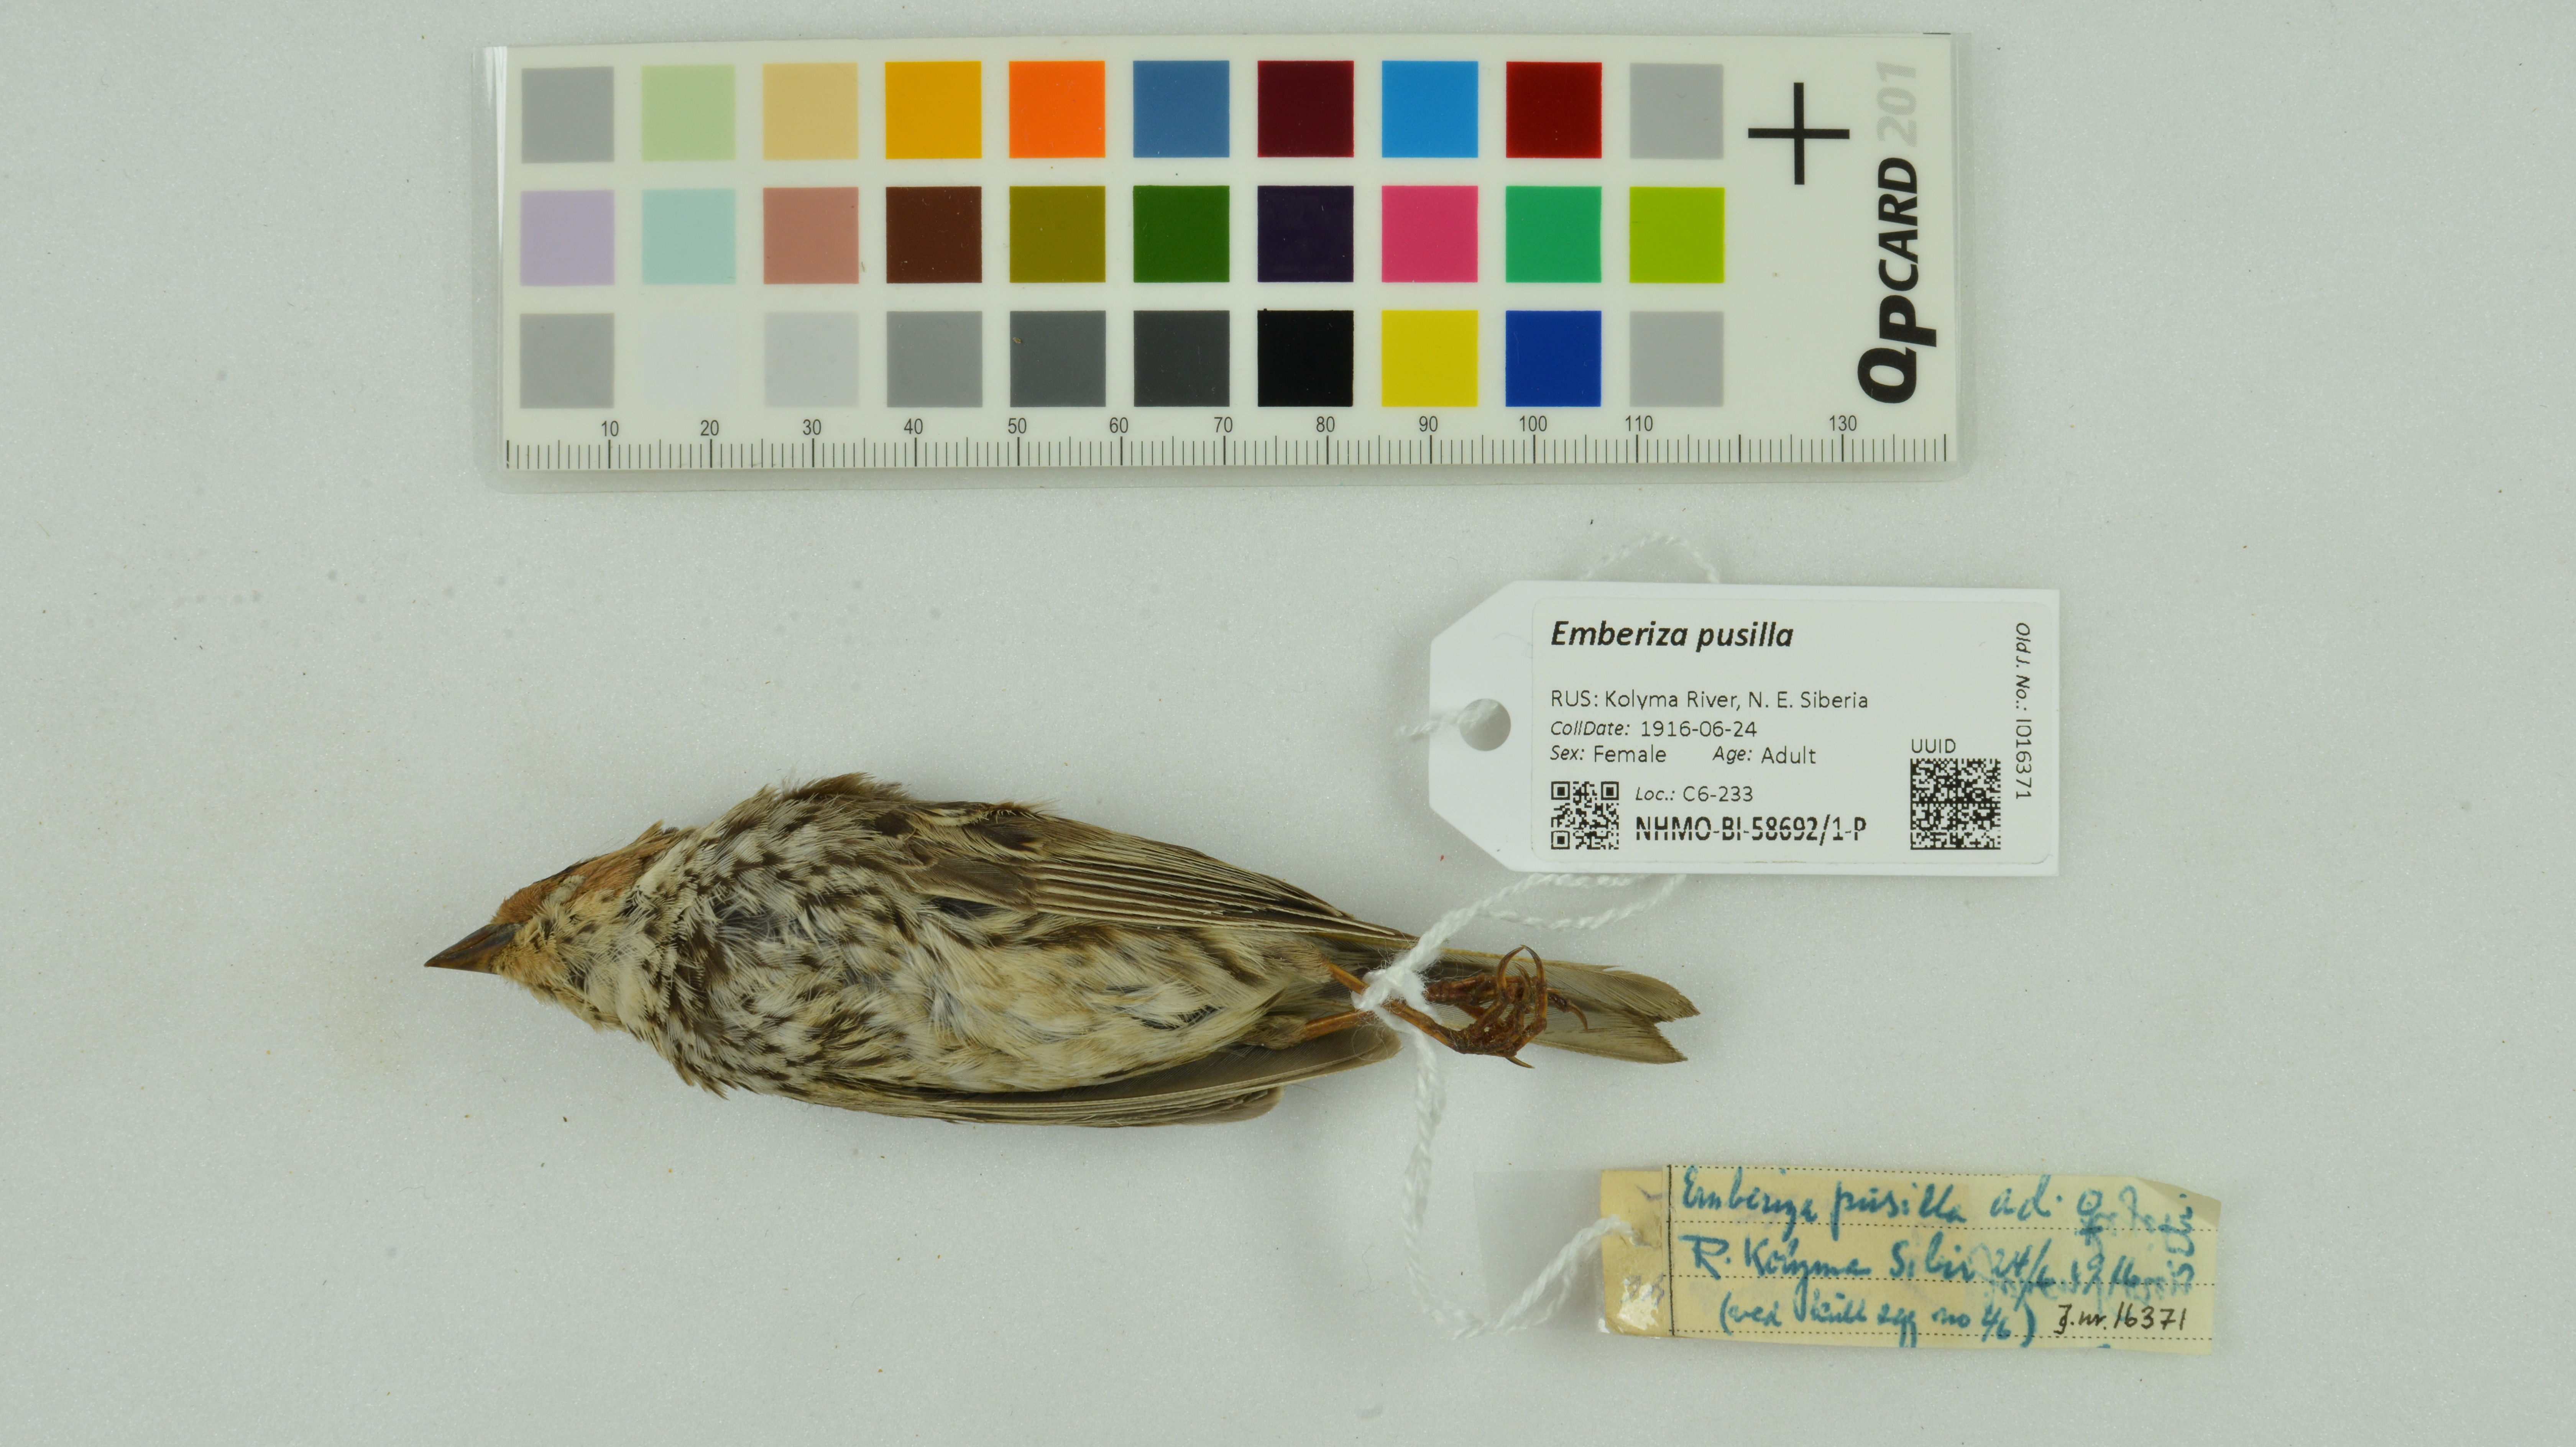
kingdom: Animalia
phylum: Chordata
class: Aves
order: Passeriformes
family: Emberizidae
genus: Emberiza
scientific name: Emberiza pusilla
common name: Little bunting
